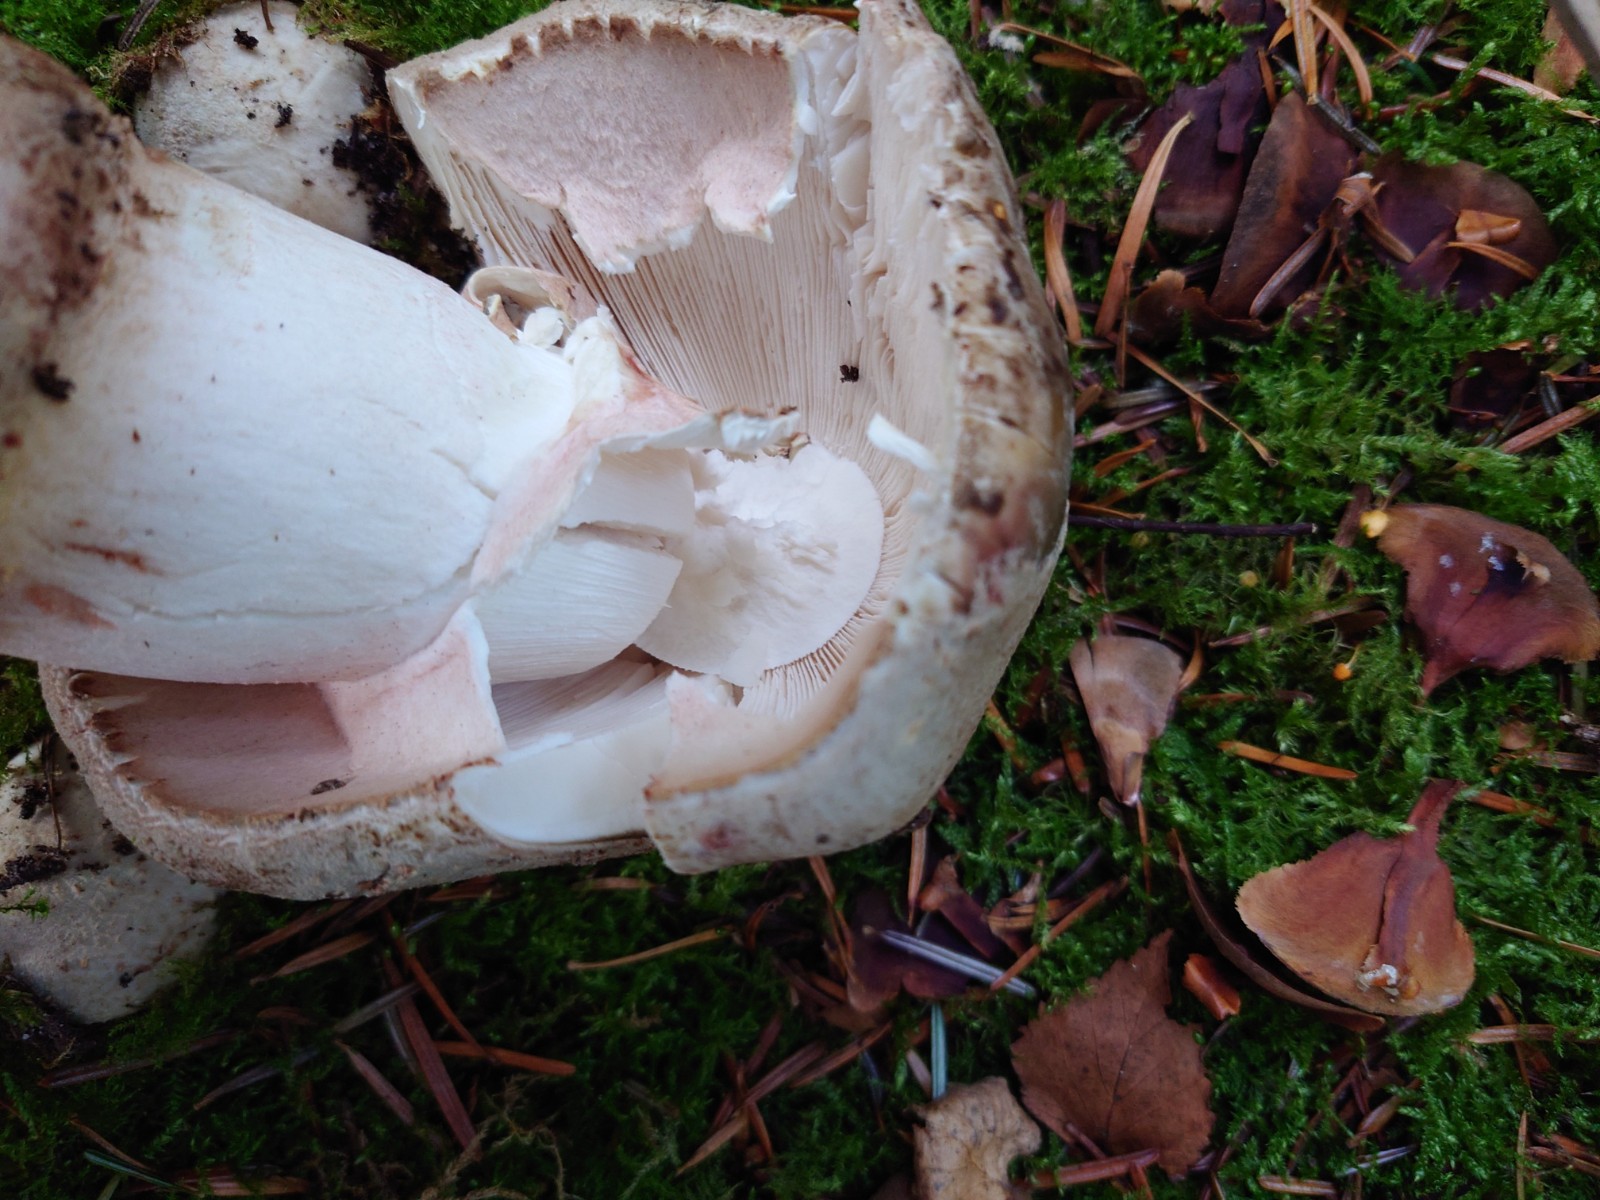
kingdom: Fungi
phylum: Basidiomycota
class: Agaricomycetes
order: Agaricales
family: Amanitaceae
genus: Amanita
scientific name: Amanita rubescens
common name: rødmende fluesvamp
